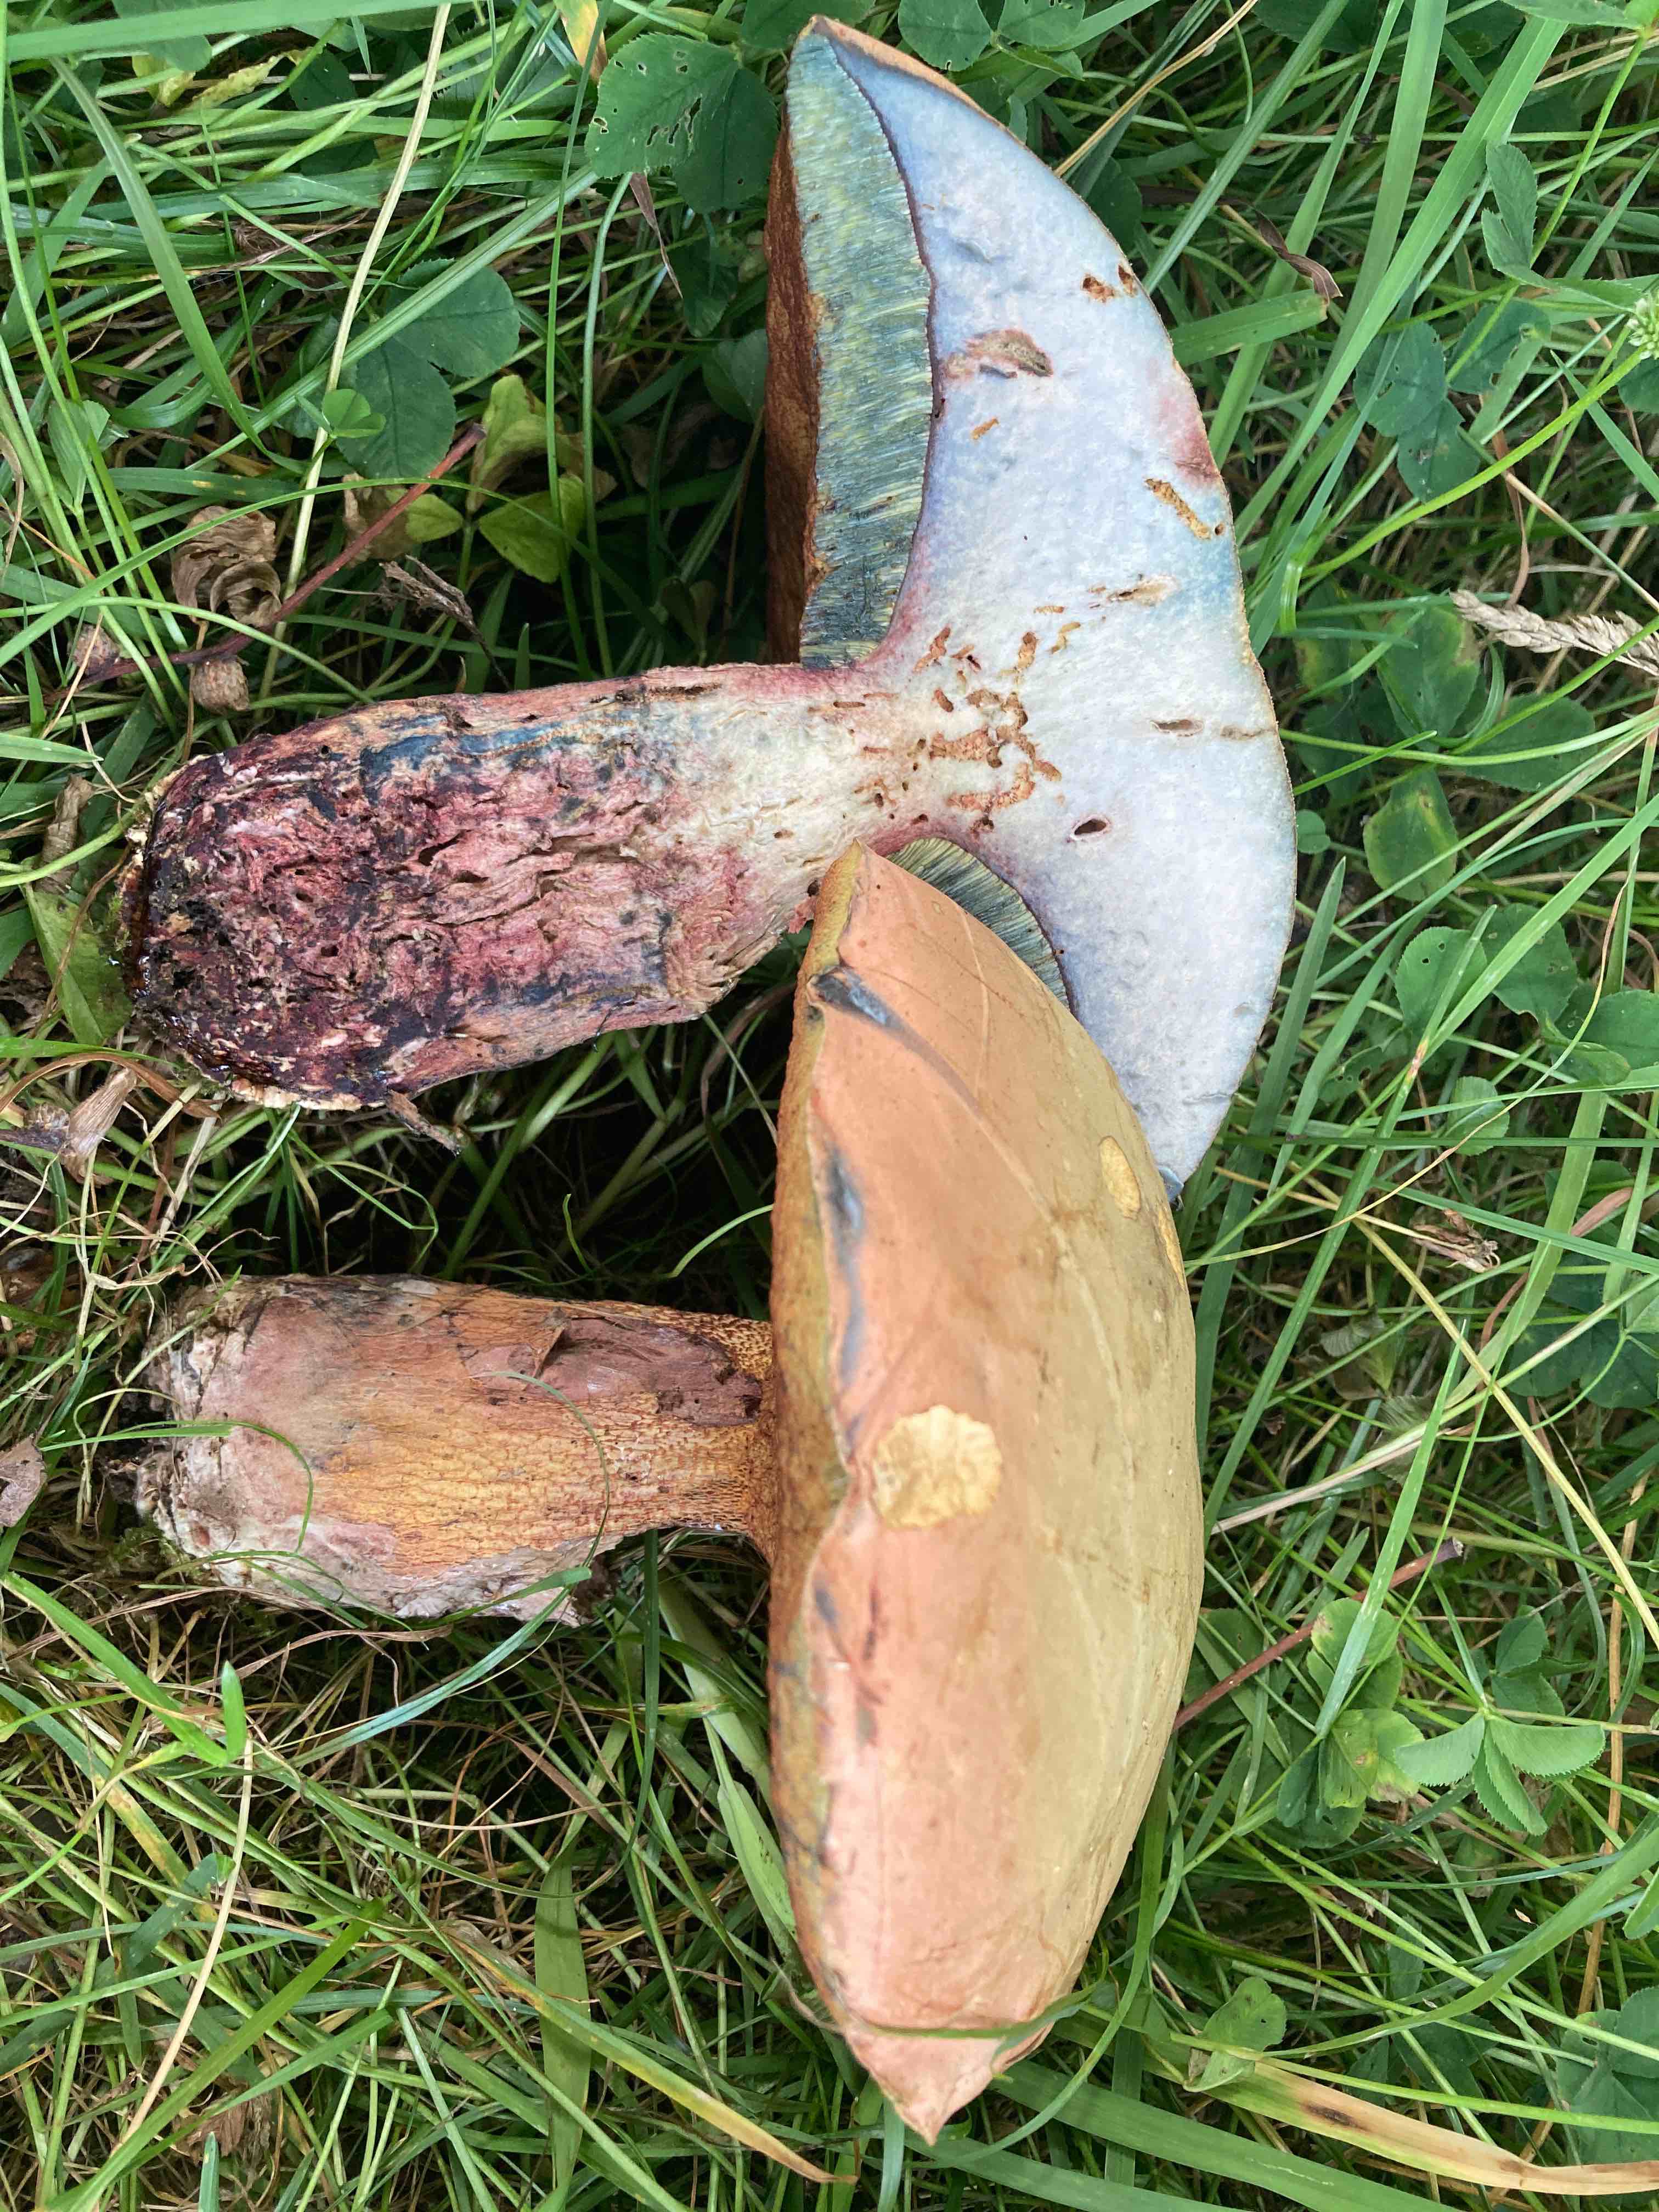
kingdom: Fungi
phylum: Basidiomycota
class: Agaricomycetes
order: Boletales
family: Boletaceae
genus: Suillellus
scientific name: Suillellus luridus
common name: netstokket indigorørhat
